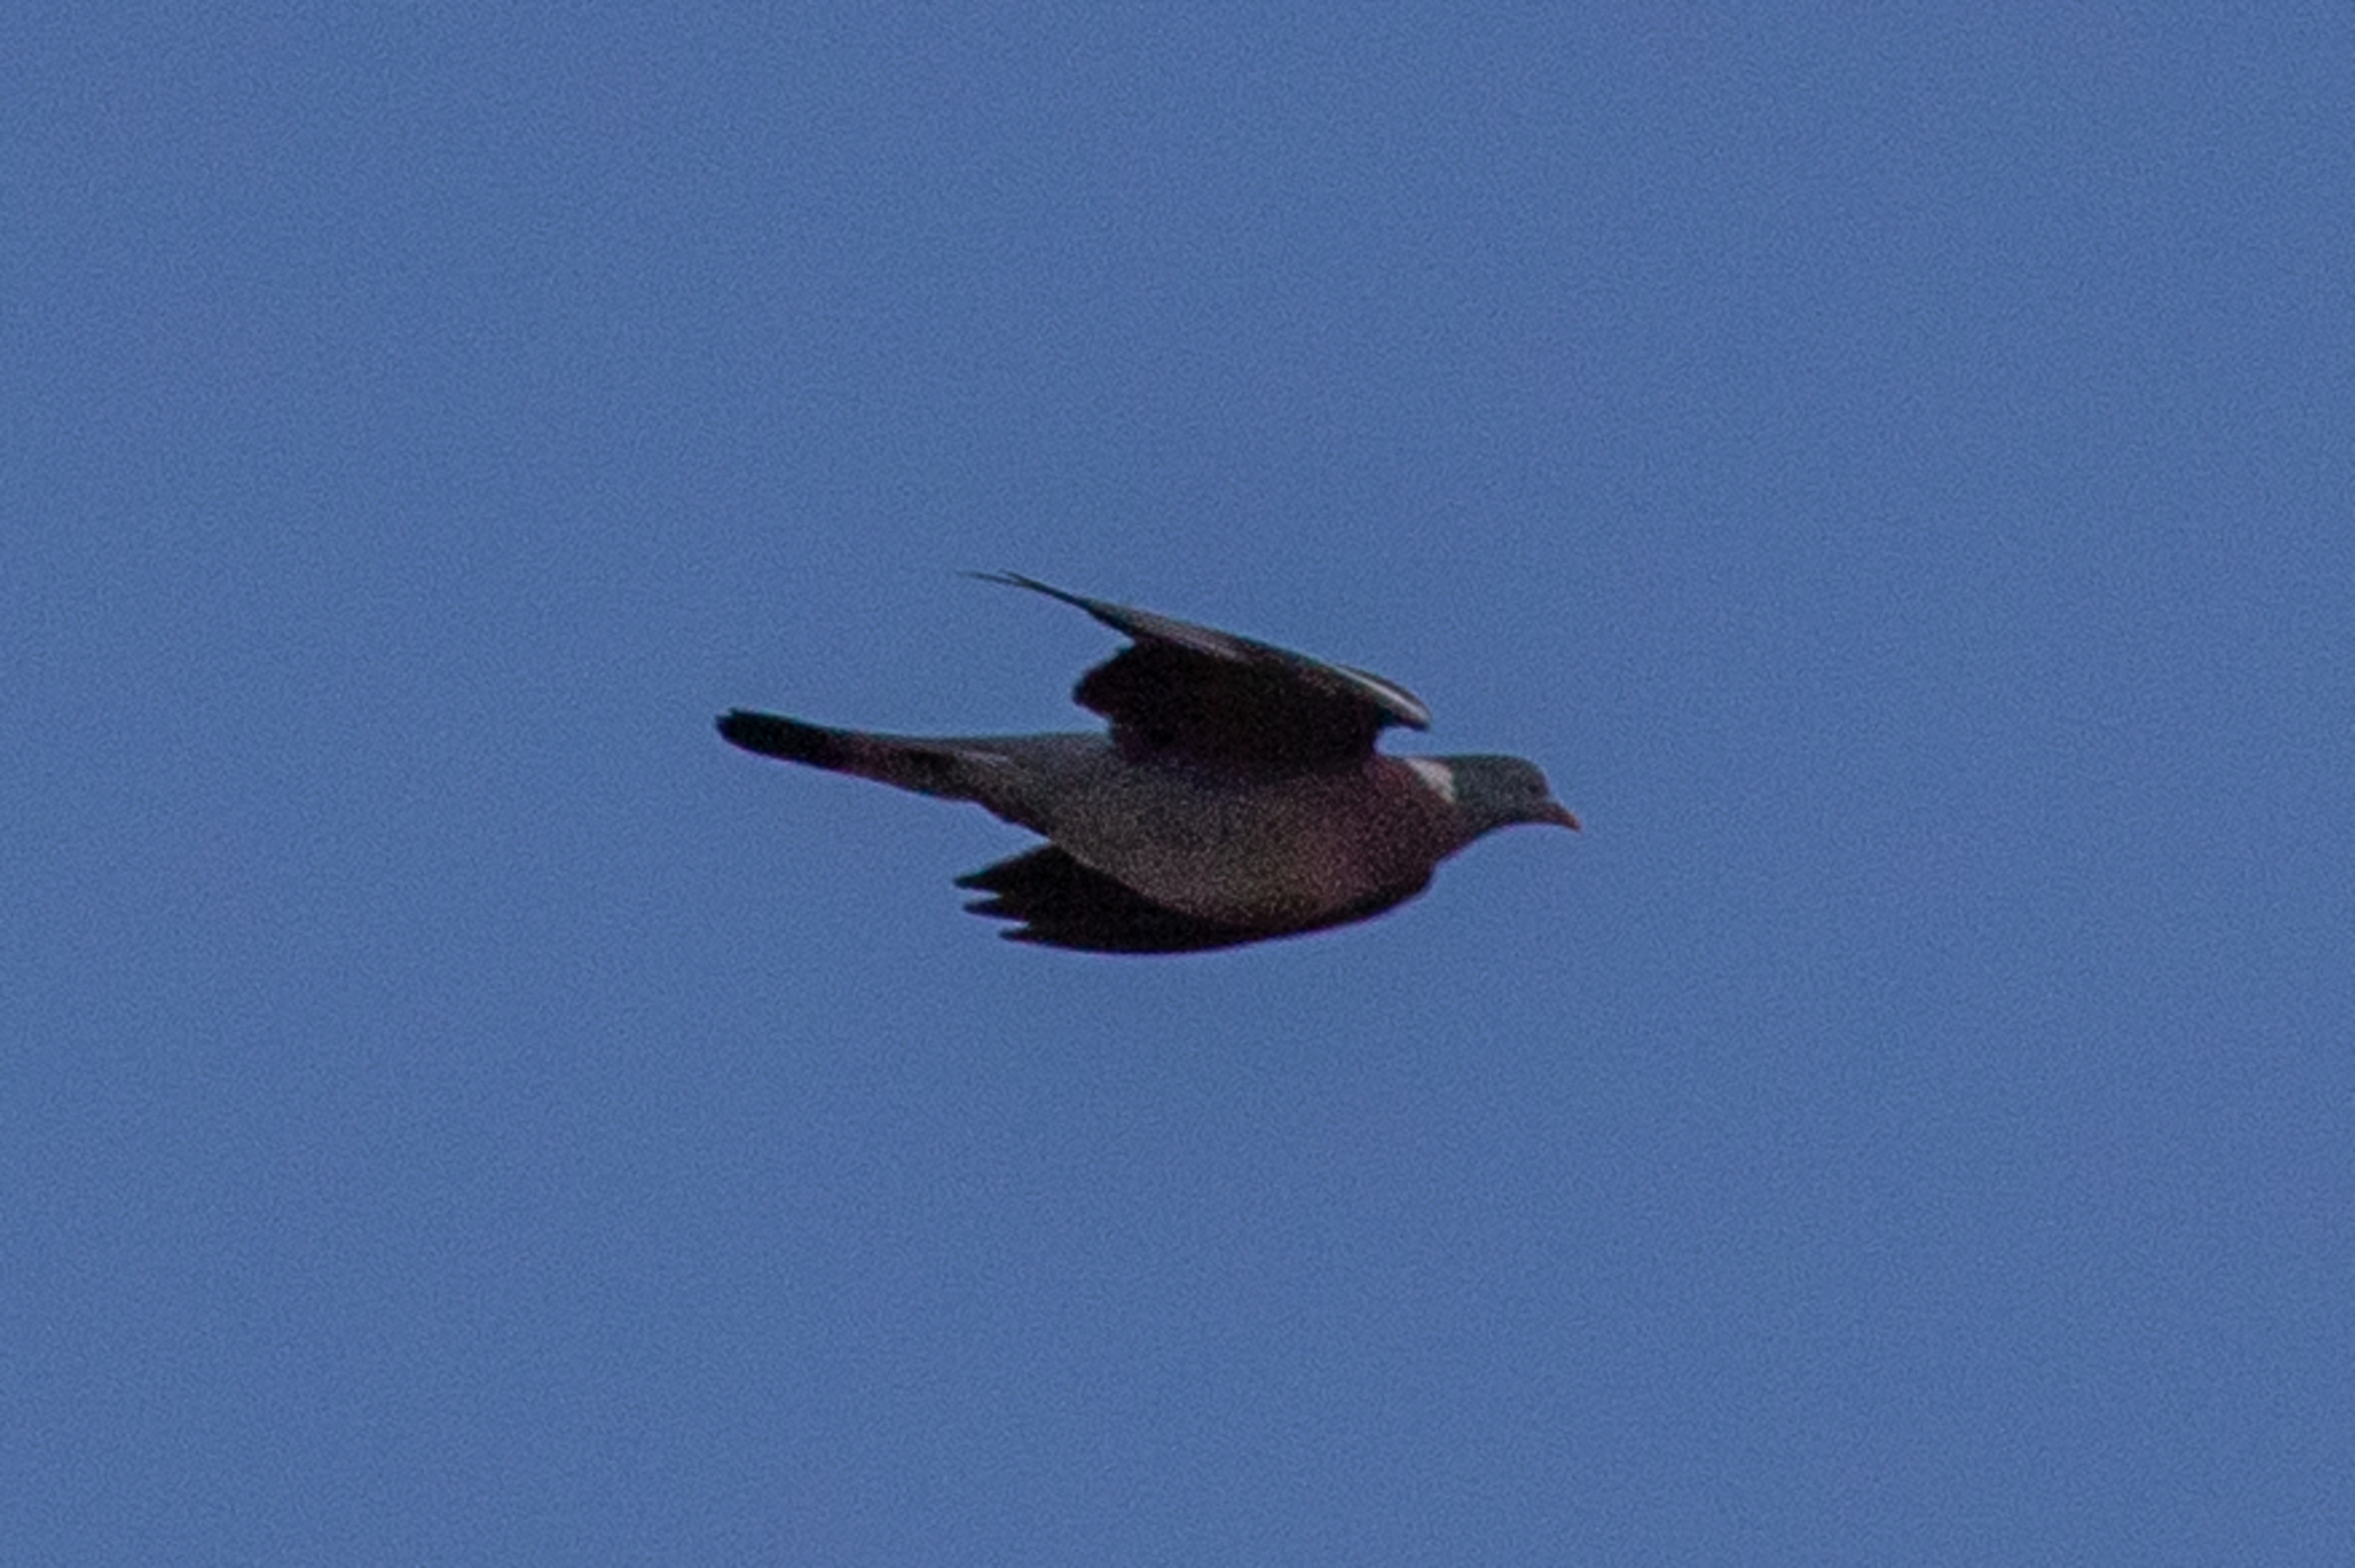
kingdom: Animalia
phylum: Chordata
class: Aves
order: Columbiformes
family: Columbidae
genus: Columba
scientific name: Columba palumbus
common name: Ringdue
